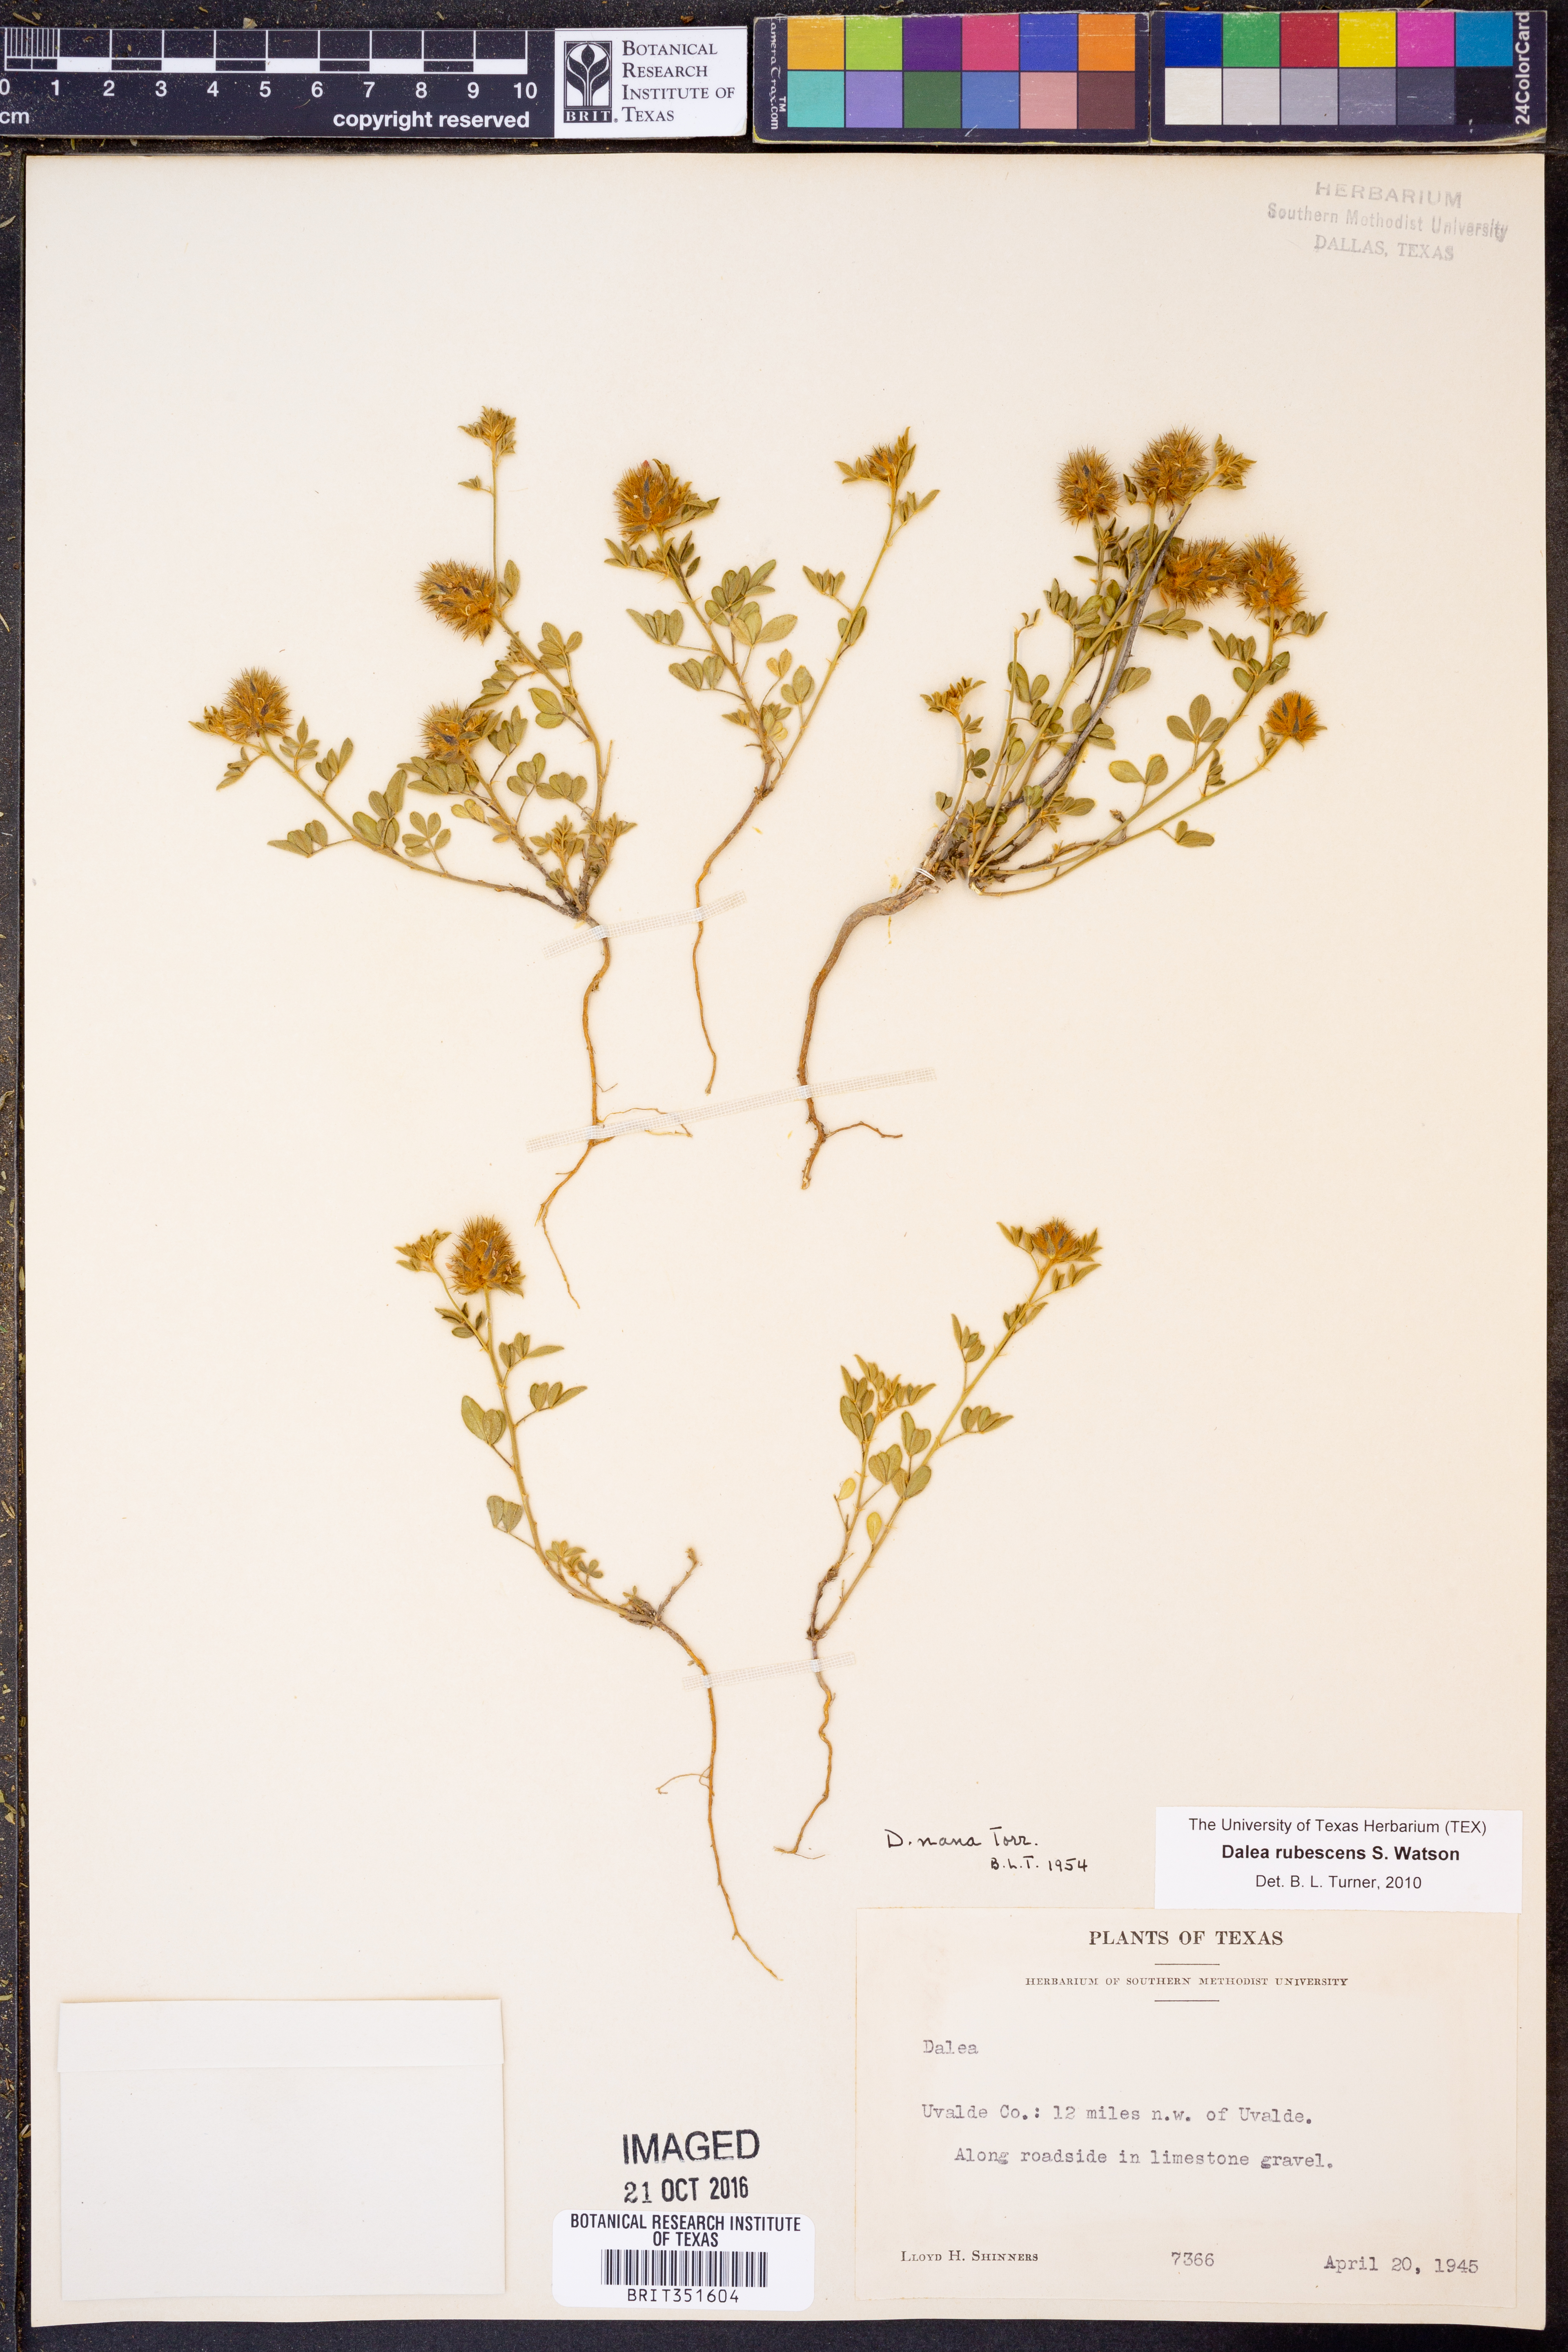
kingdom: Plantae
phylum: Tracheophyta
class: Magnoliopsida
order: Fabales
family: Fabaceae
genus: Dalea
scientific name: Dalea rubescens
